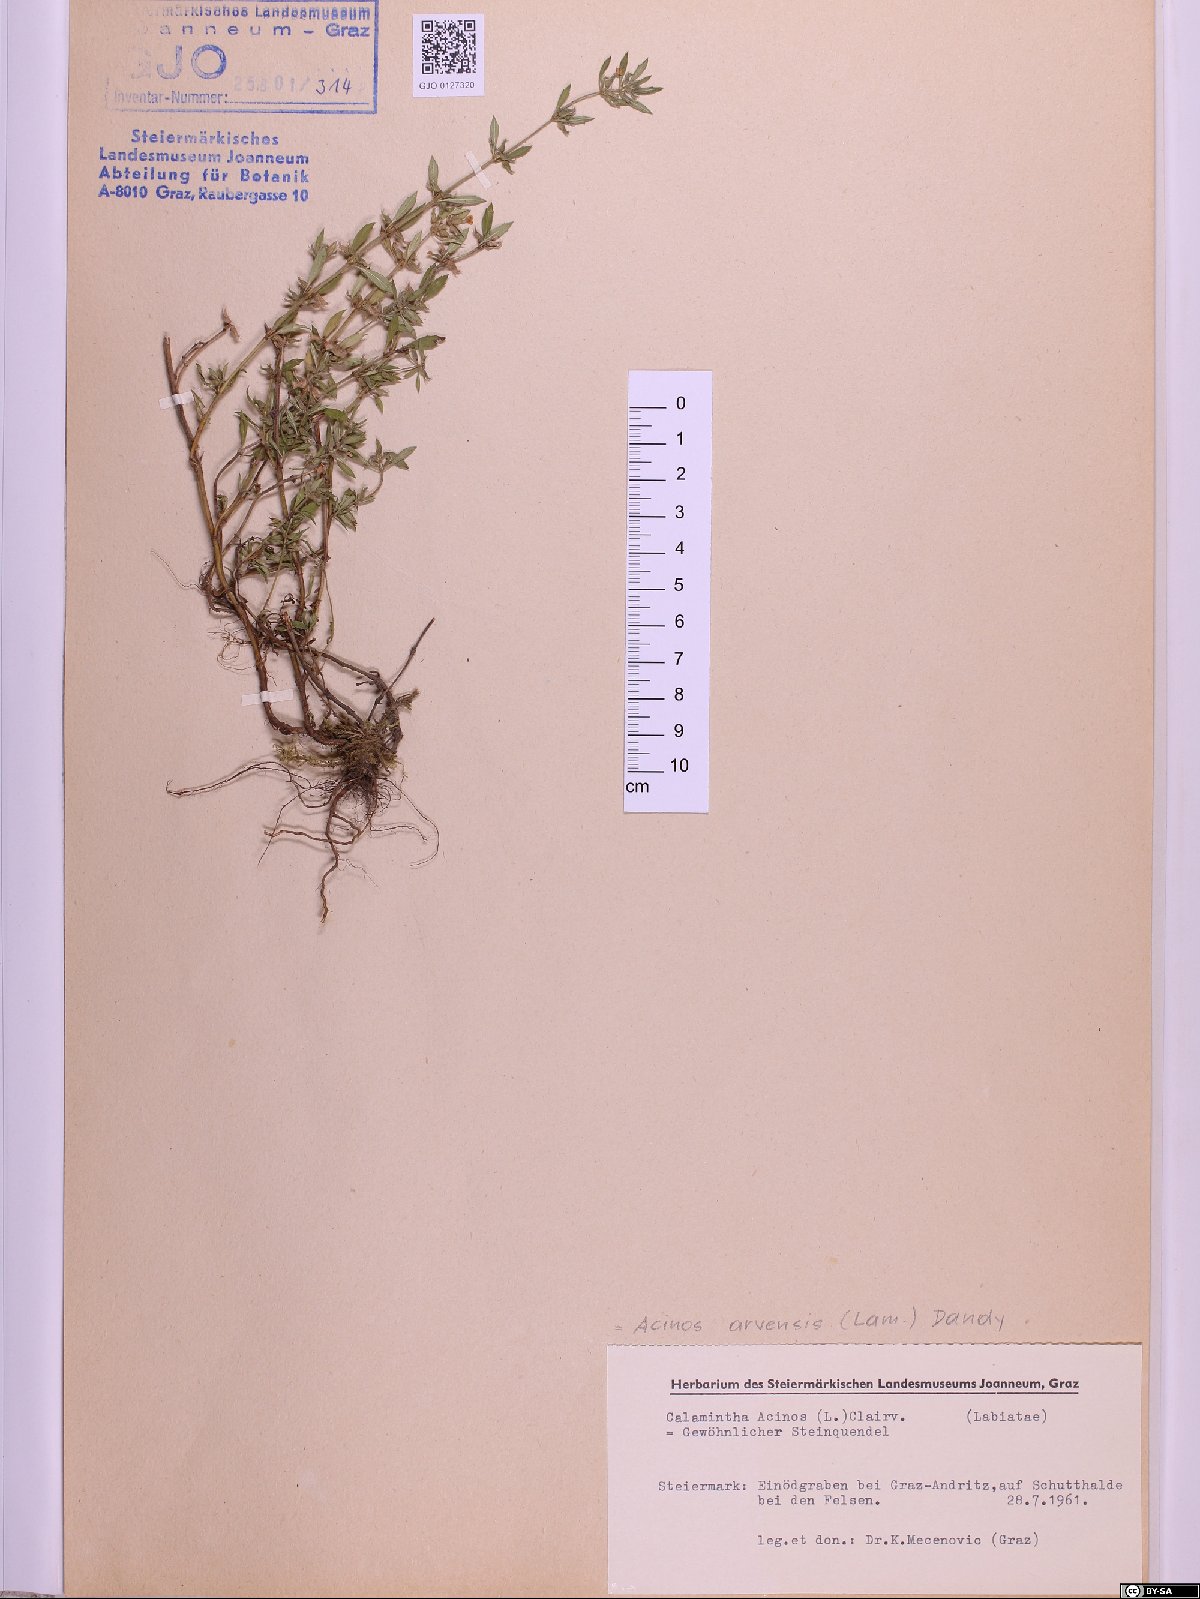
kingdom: Plantae
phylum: Tracheophyta
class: Magnoliopsida
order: Lamiales
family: Lamiaceae
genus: Clinopodium
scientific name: Clinopodium acinos
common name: Basil thyme
